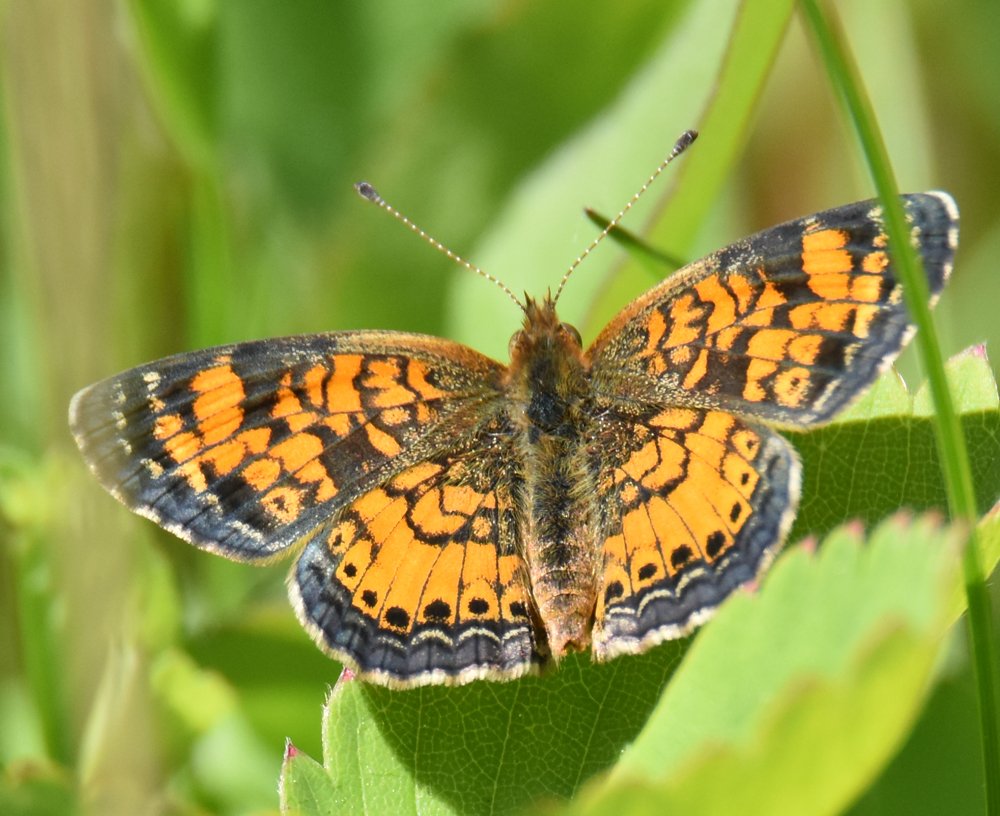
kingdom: Animalia
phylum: Arthropoda
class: Insecta
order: Lepidoptera
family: Nymphalidae
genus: Phyciodes
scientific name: Phyciodes tharos
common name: Pearl Crescent
